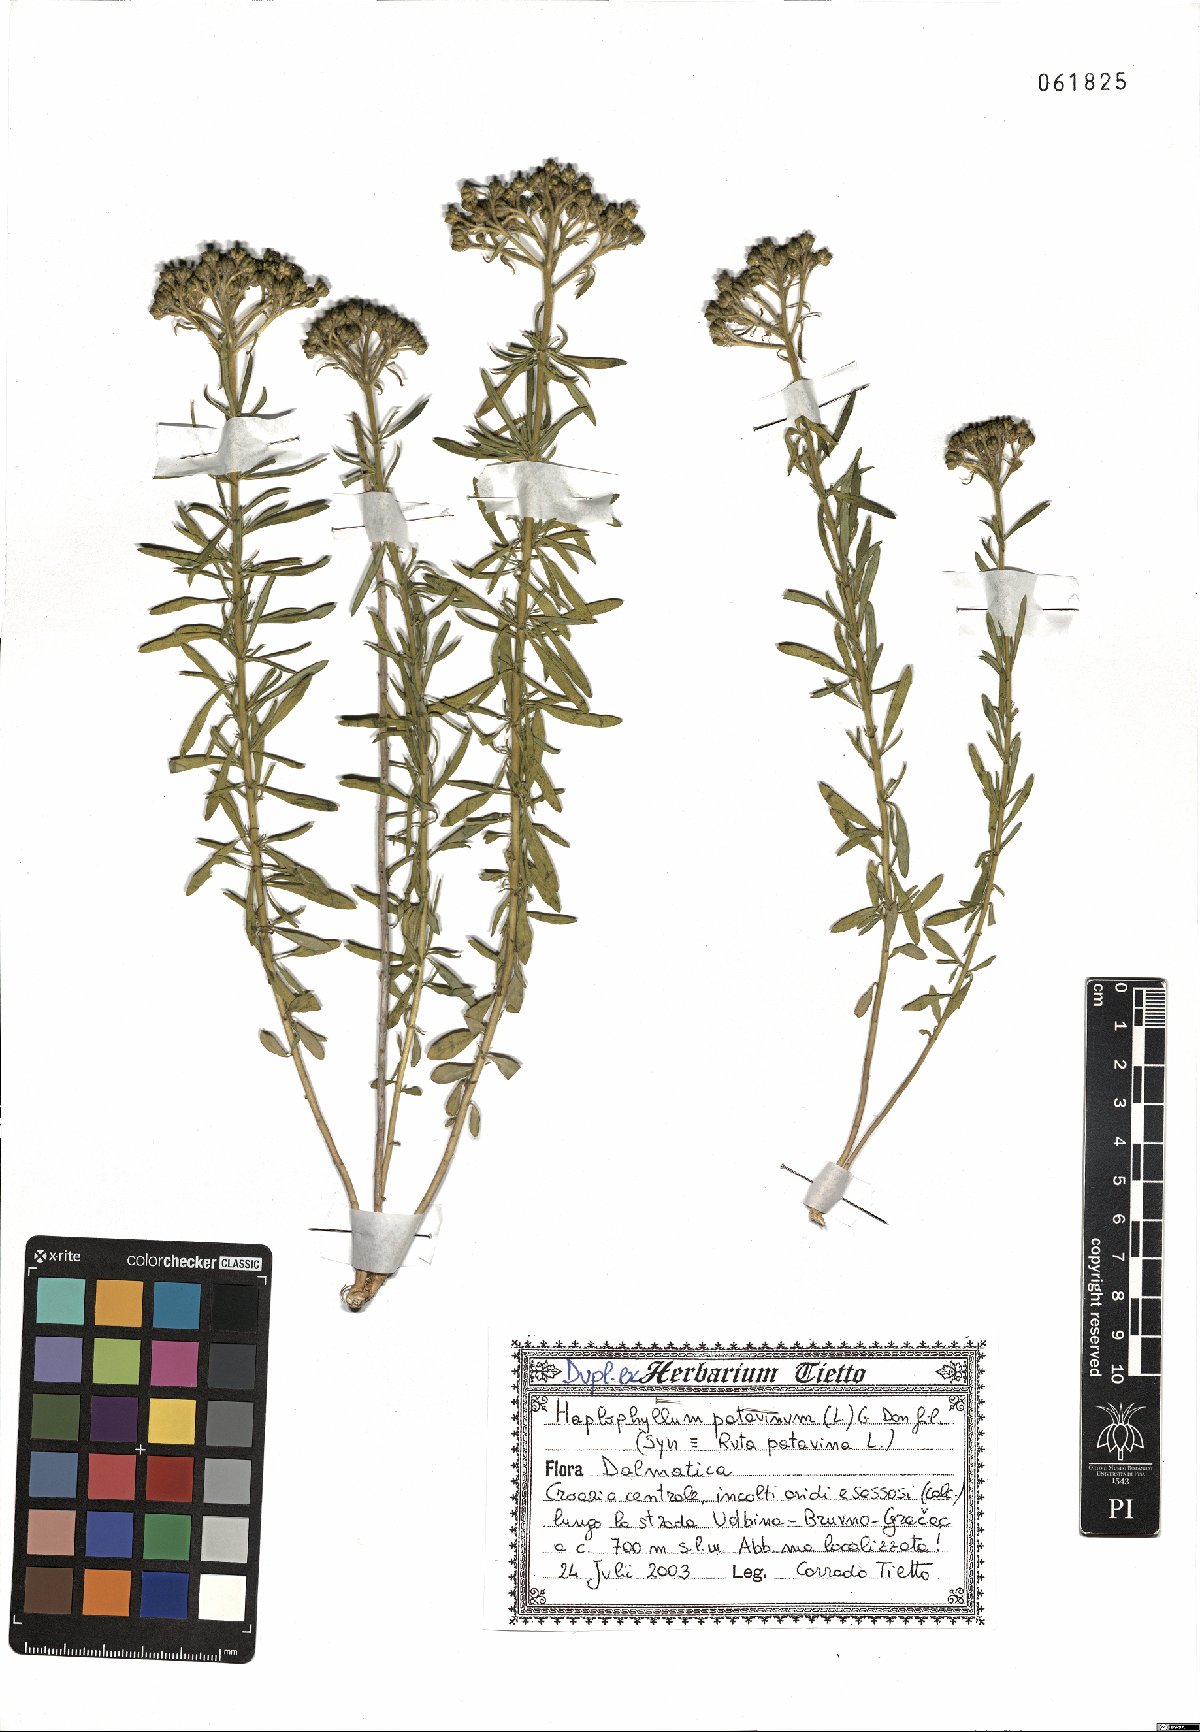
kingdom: Plantae
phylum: Tracheophyta
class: Magnoliopsida
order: Sapindales
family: Rutaceae
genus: Haplophyllum
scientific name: Haplophyllum patavinum
